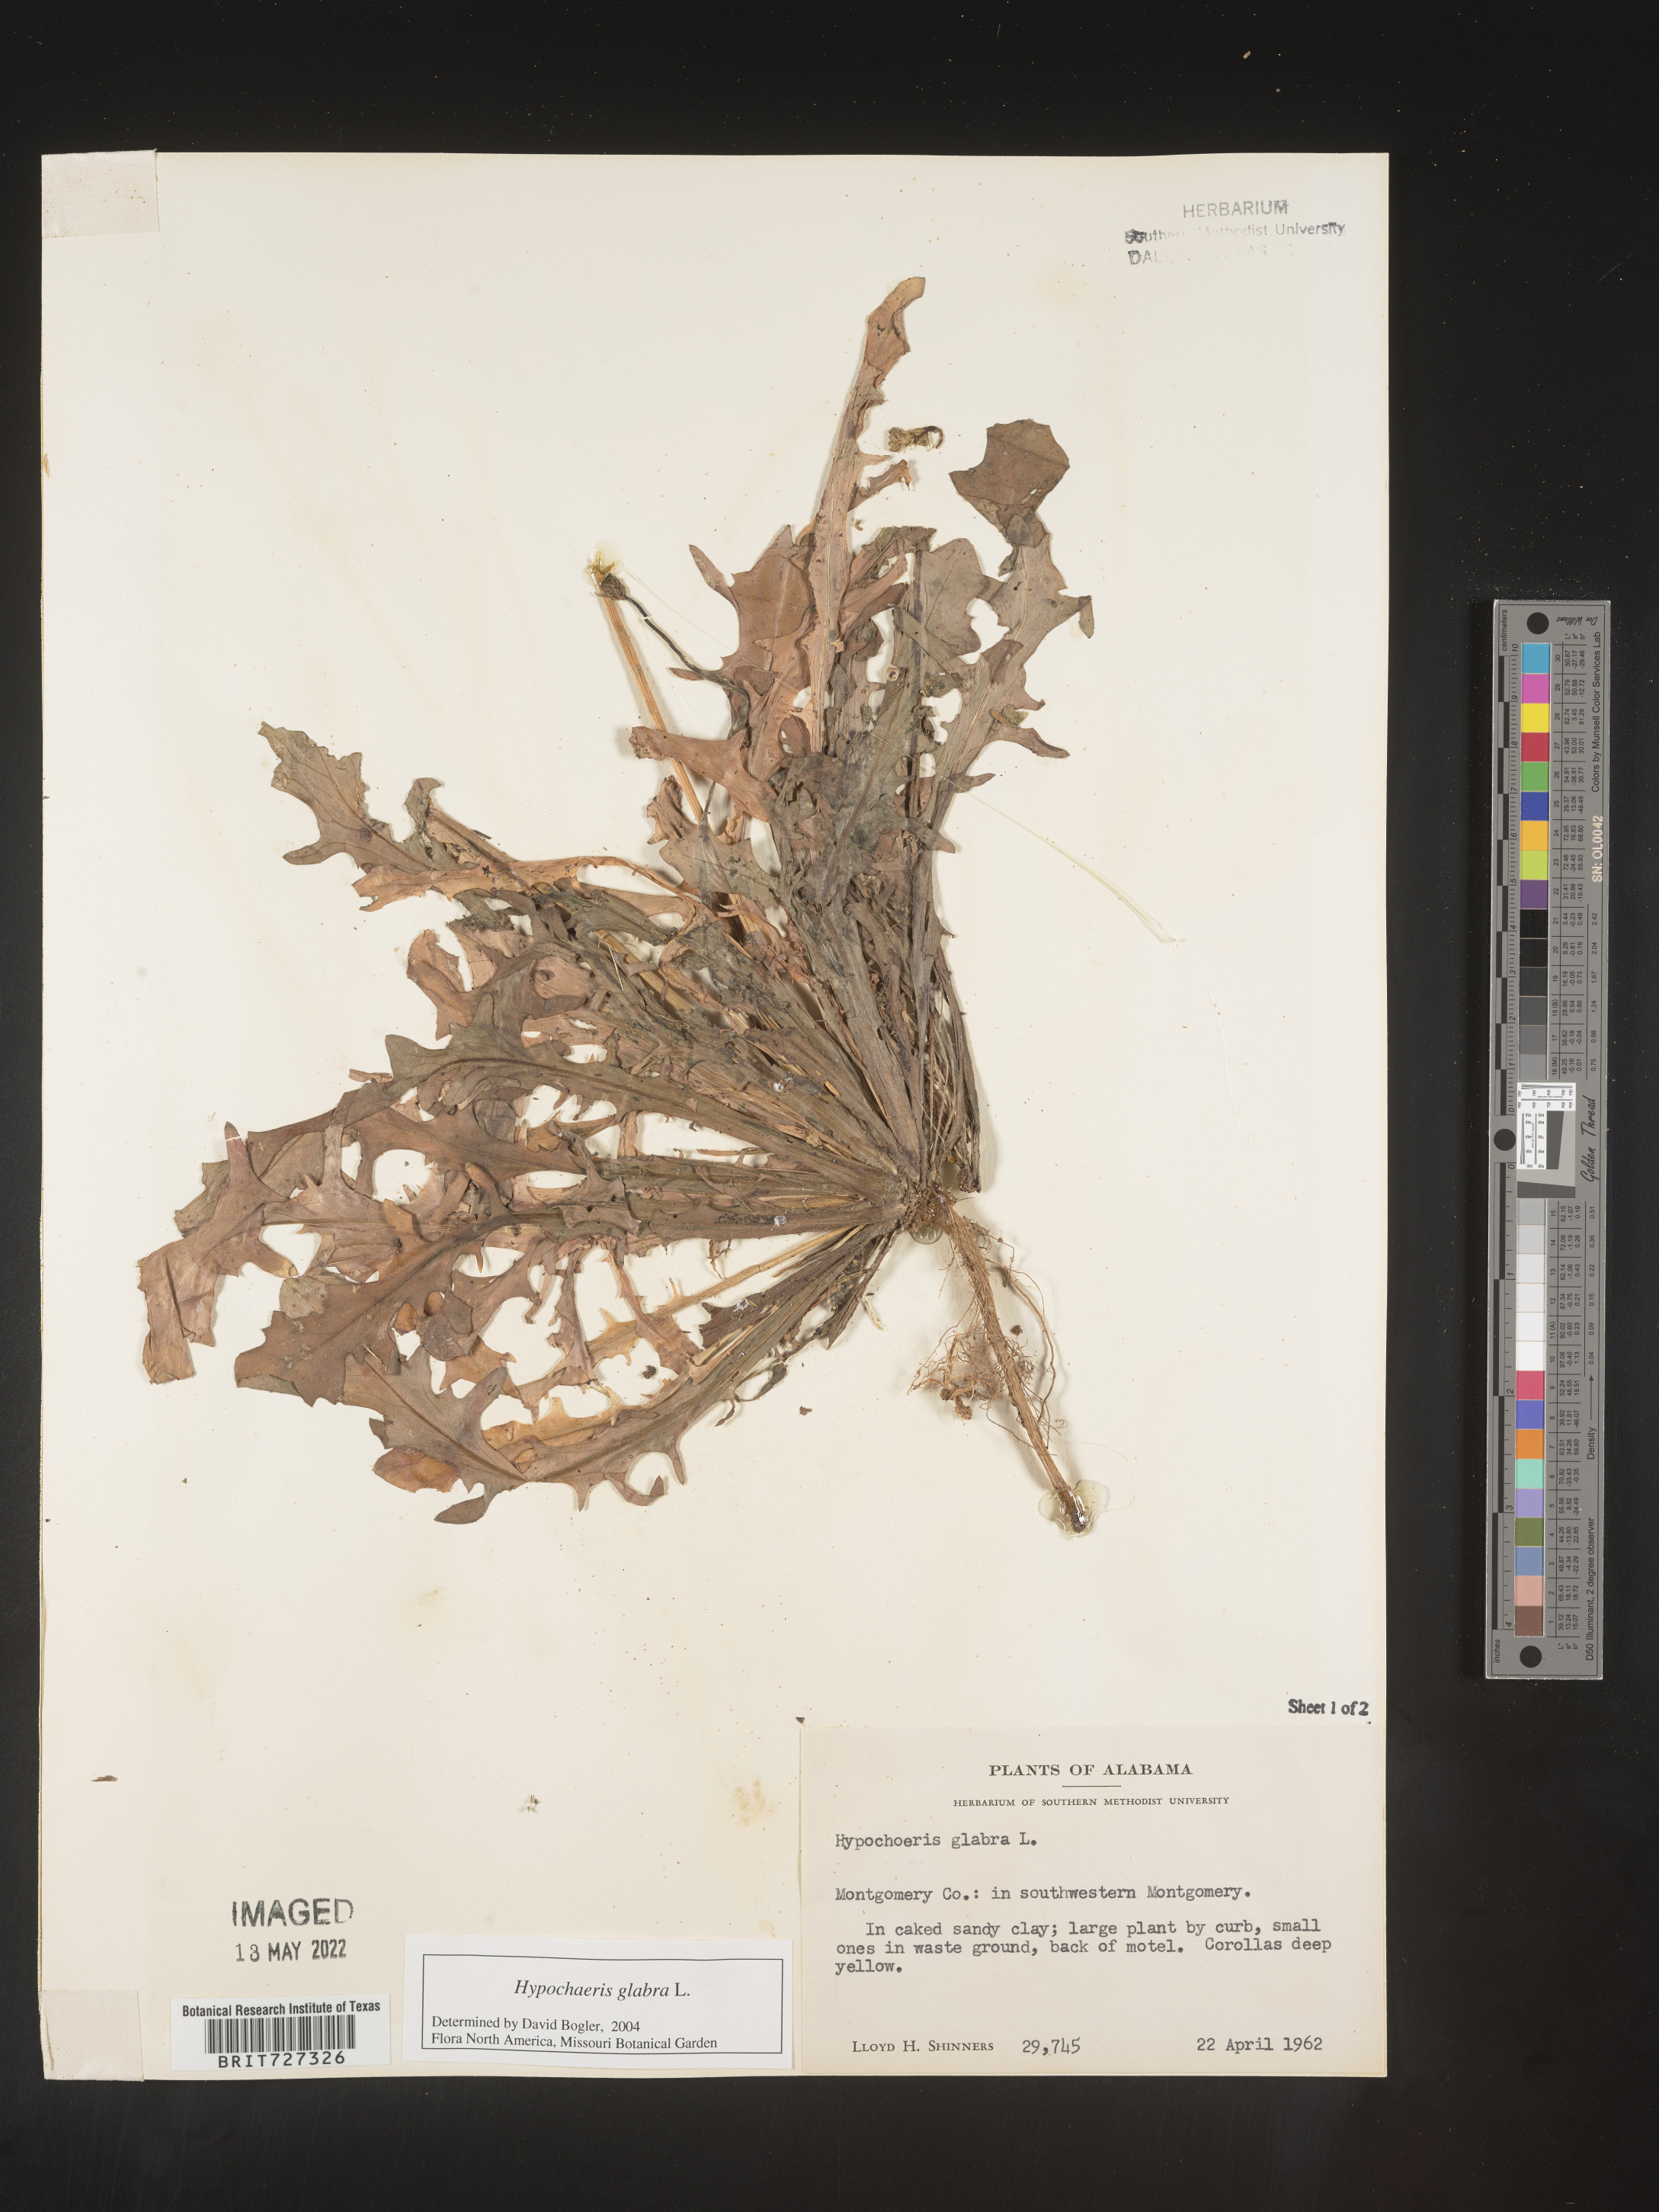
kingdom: Plantae
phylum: Tracheophyta
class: Magnoliopsida
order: Asterales
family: Asteraceae
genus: Hypochaeris
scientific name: Hypochaeris glabra
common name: Smooth catsear
